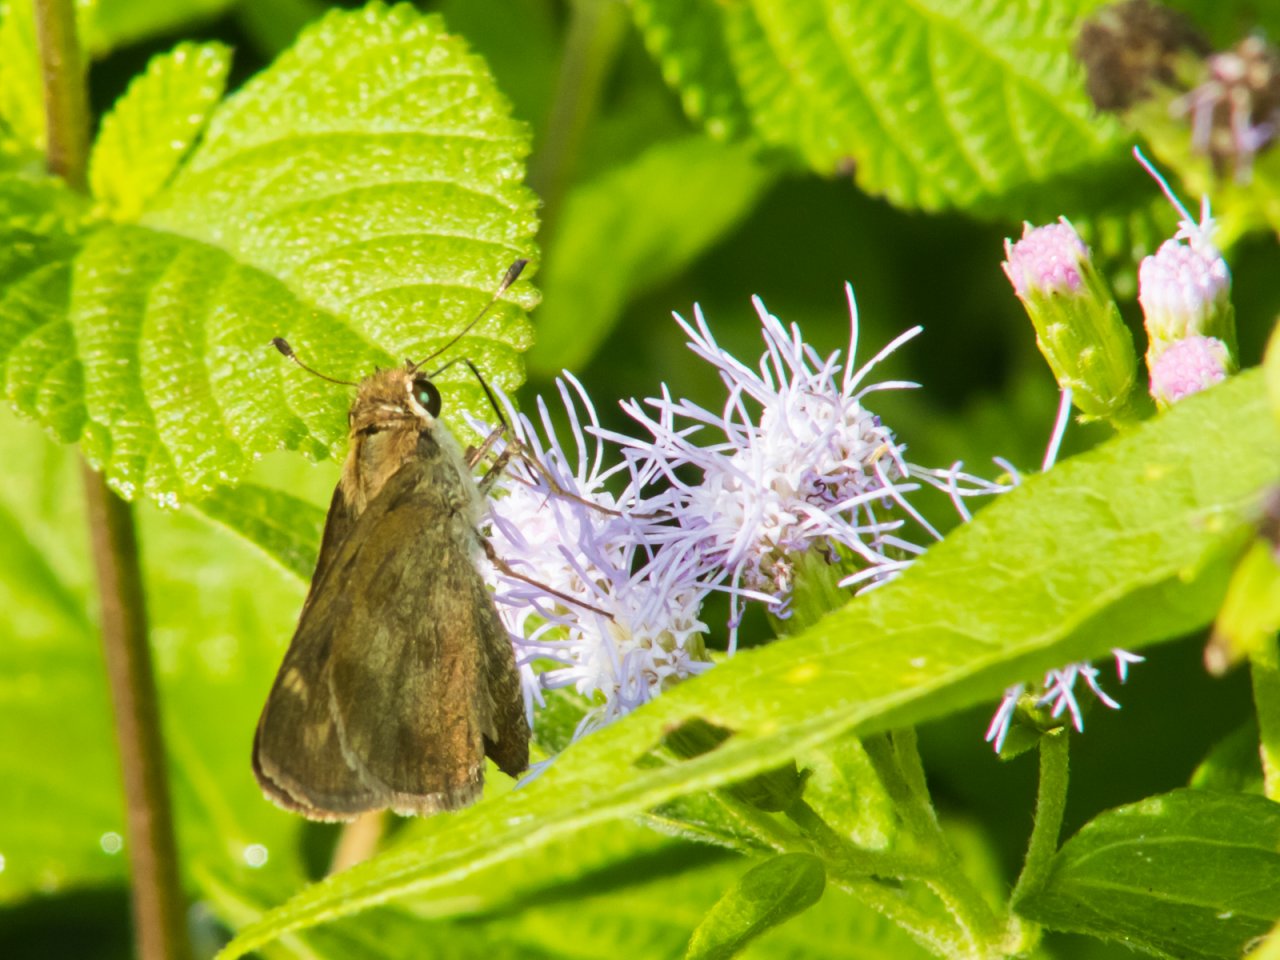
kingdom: Animalia
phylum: Arthropoda
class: Insecta
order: Lepidoptera
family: Hesperiidae
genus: Polites
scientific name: Polites vibex
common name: Whirlabout
